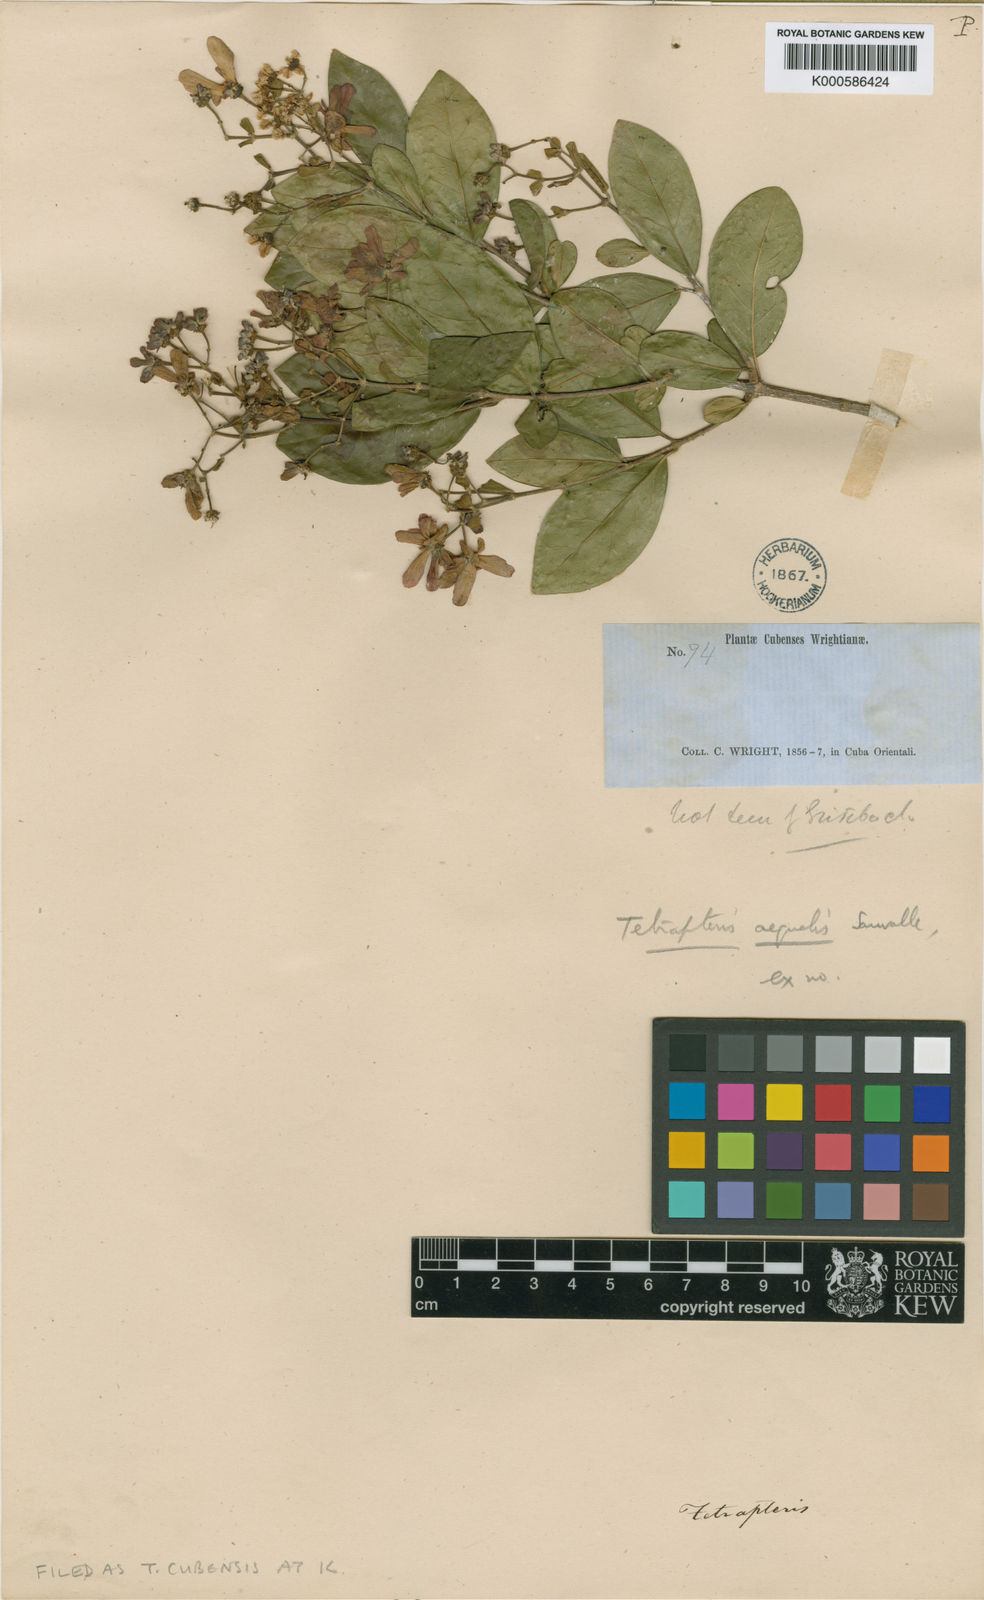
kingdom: Plantae
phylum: Tracheophyta
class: Magnoliopsida
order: Malpighiales
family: Malpighiaceae
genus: Tetrapterys
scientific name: Tetrapterys aequalis
